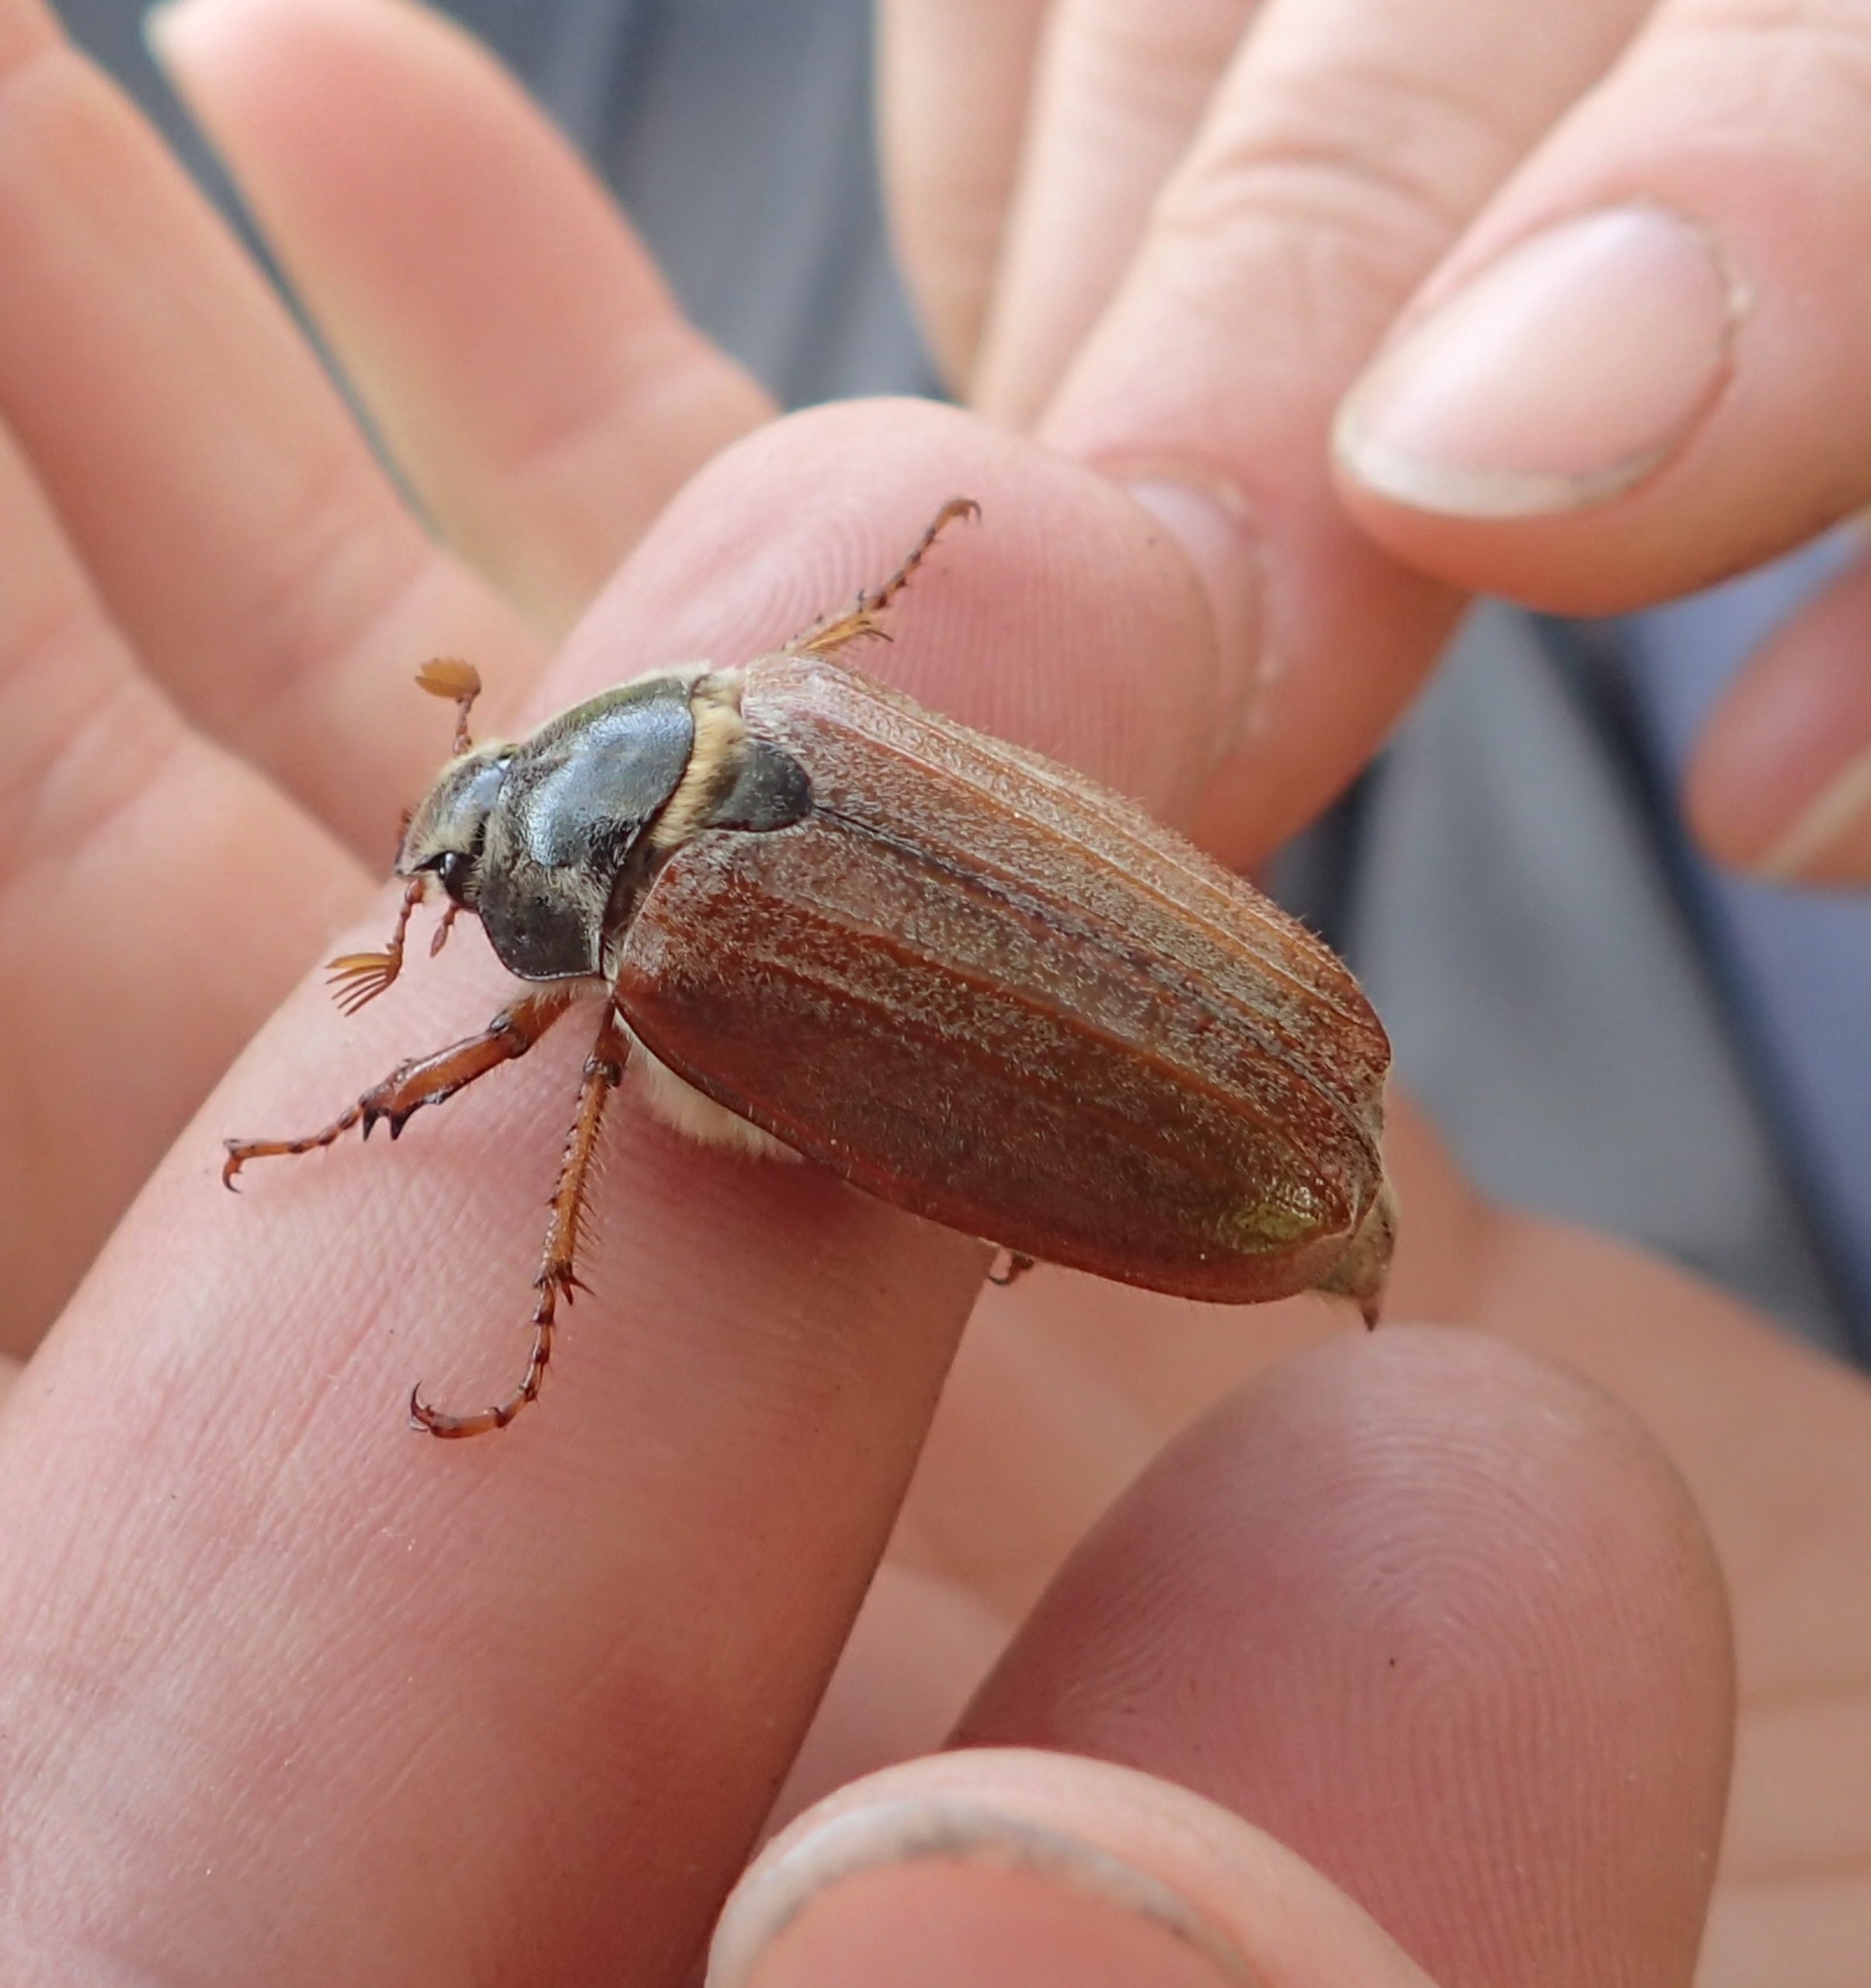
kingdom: Animalia
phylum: Arthropoda
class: Insecta
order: Coleoptera
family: Scarabaeidae
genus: Melolontha
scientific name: Melolontha melolontha
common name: Almindelig oldenborre
